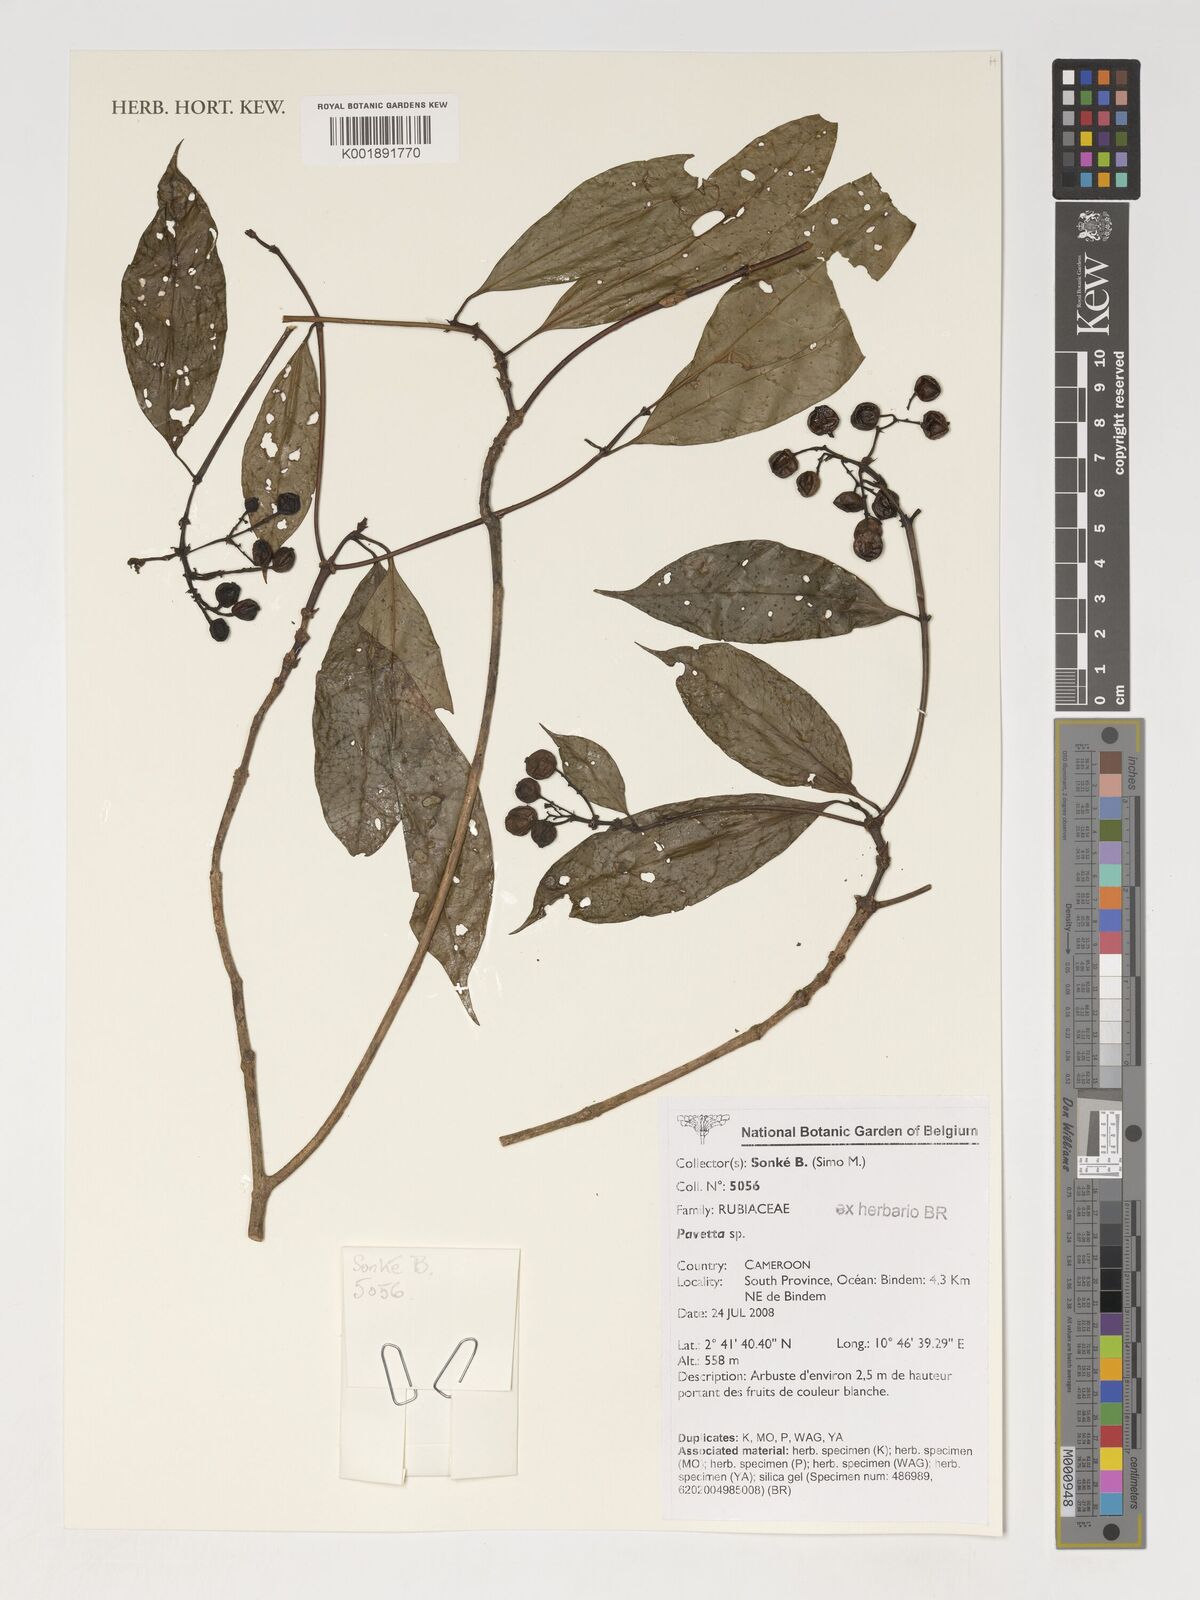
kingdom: Plantae
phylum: Tracheophyta
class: Magnoliopsida
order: Gentianales
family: Rubiaceae
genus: Pavetta
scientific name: Pavetta
